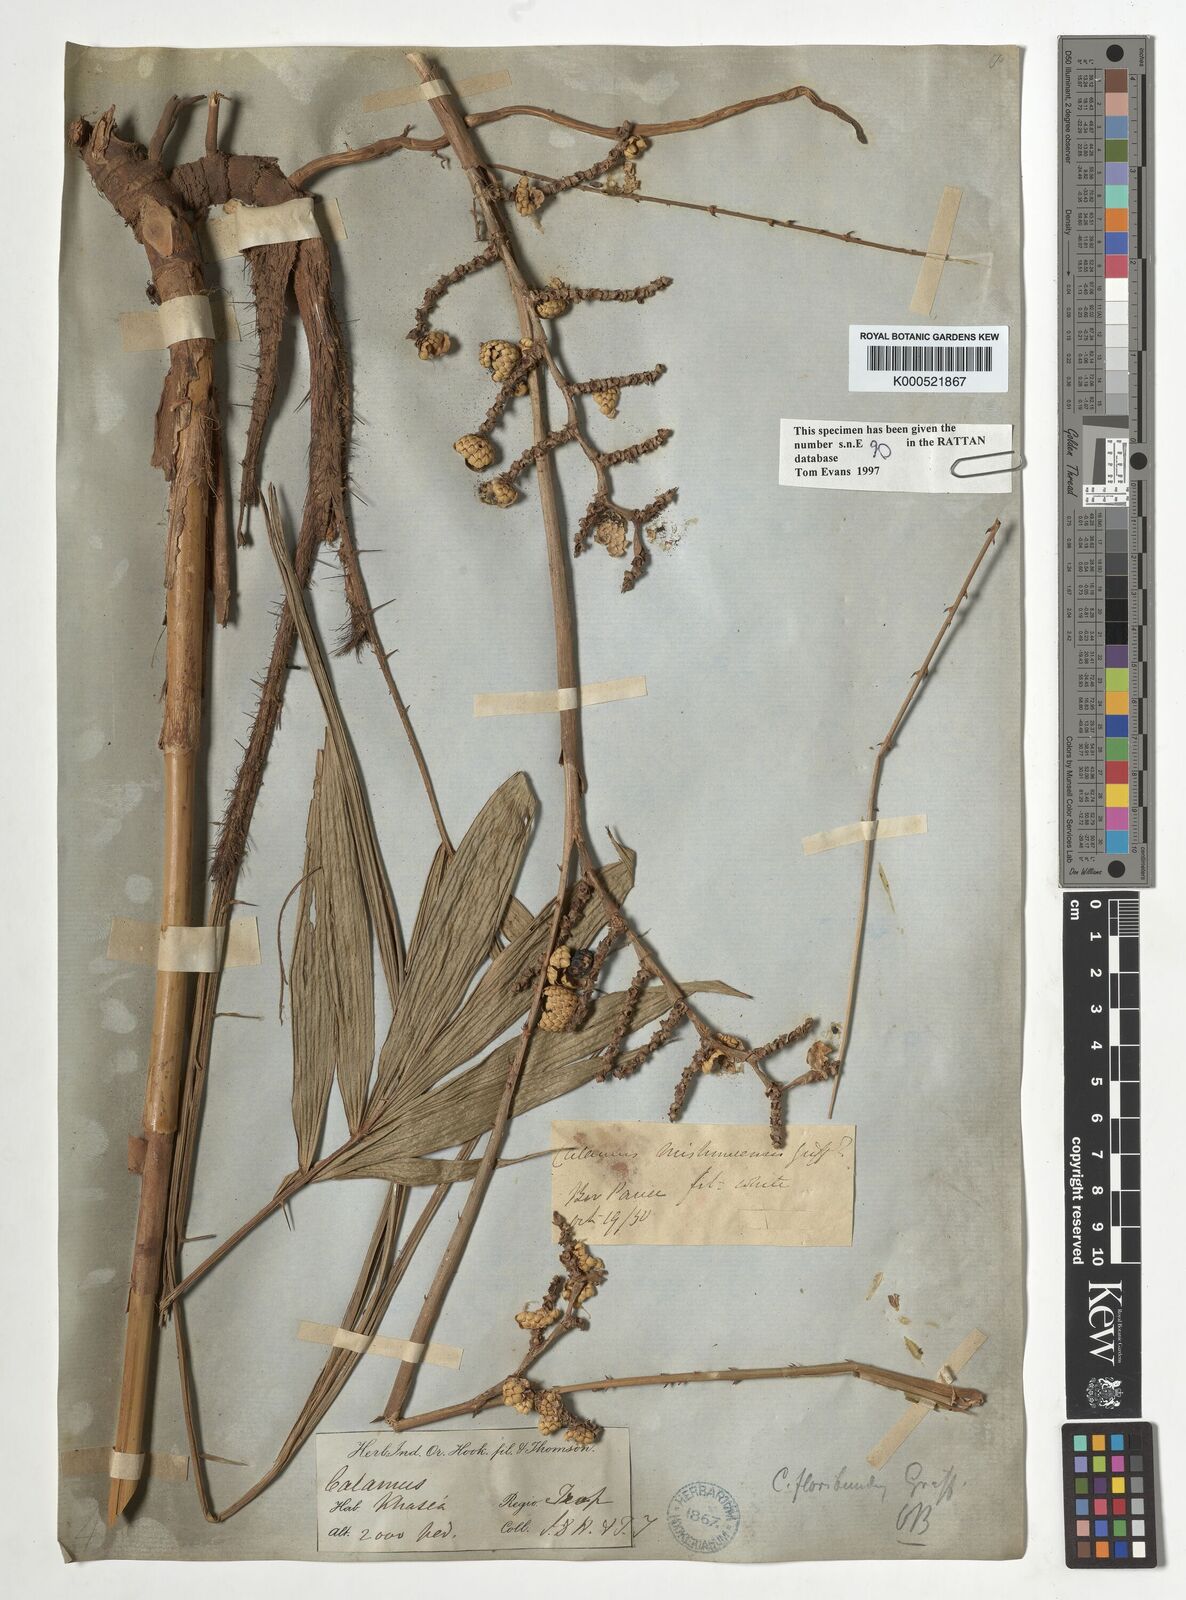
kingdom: Plantae
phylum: Tracheophyta
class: Liliopsida
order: Arecales
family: Arecaceae
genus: Calamus
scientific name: Calamus floribundus
